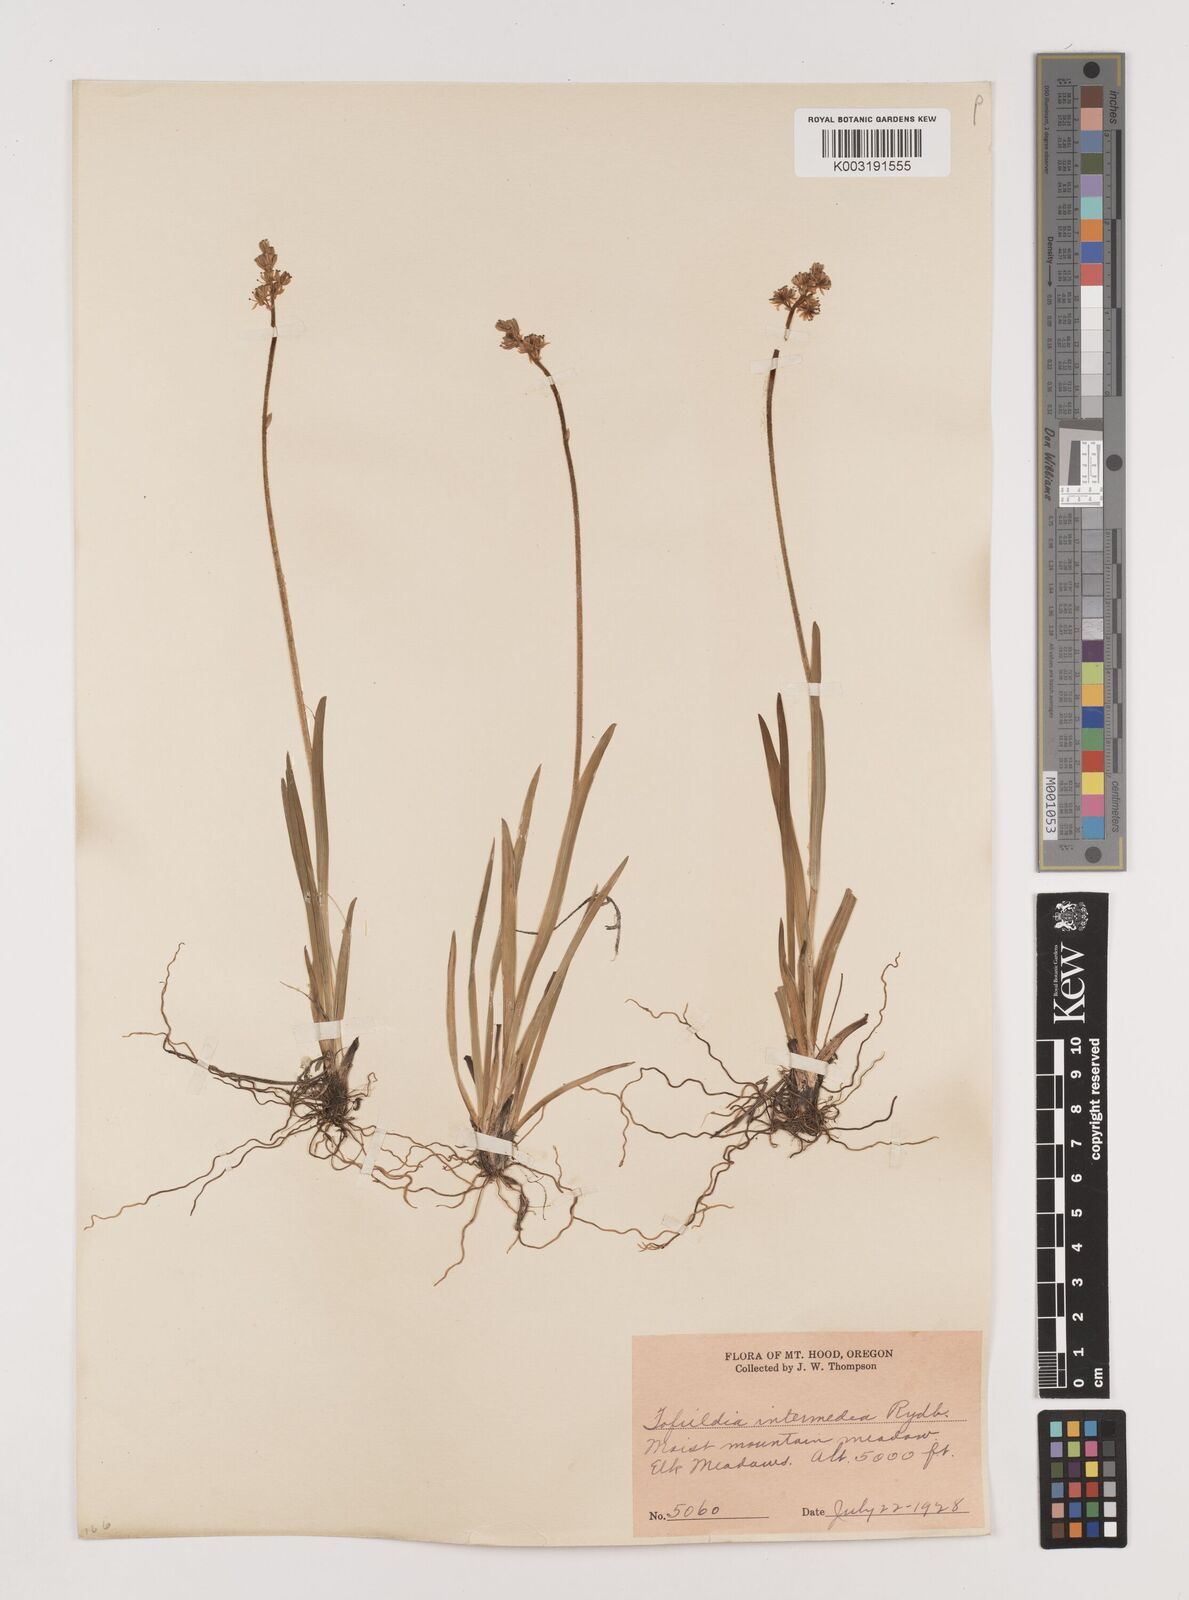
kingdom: Plantae
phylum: Tracheophyta
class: Liliopsida
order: Alismatales
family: Tofieldiaceae
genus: Triantha
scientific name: Triantha occidentalis
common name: Western false asphodel
